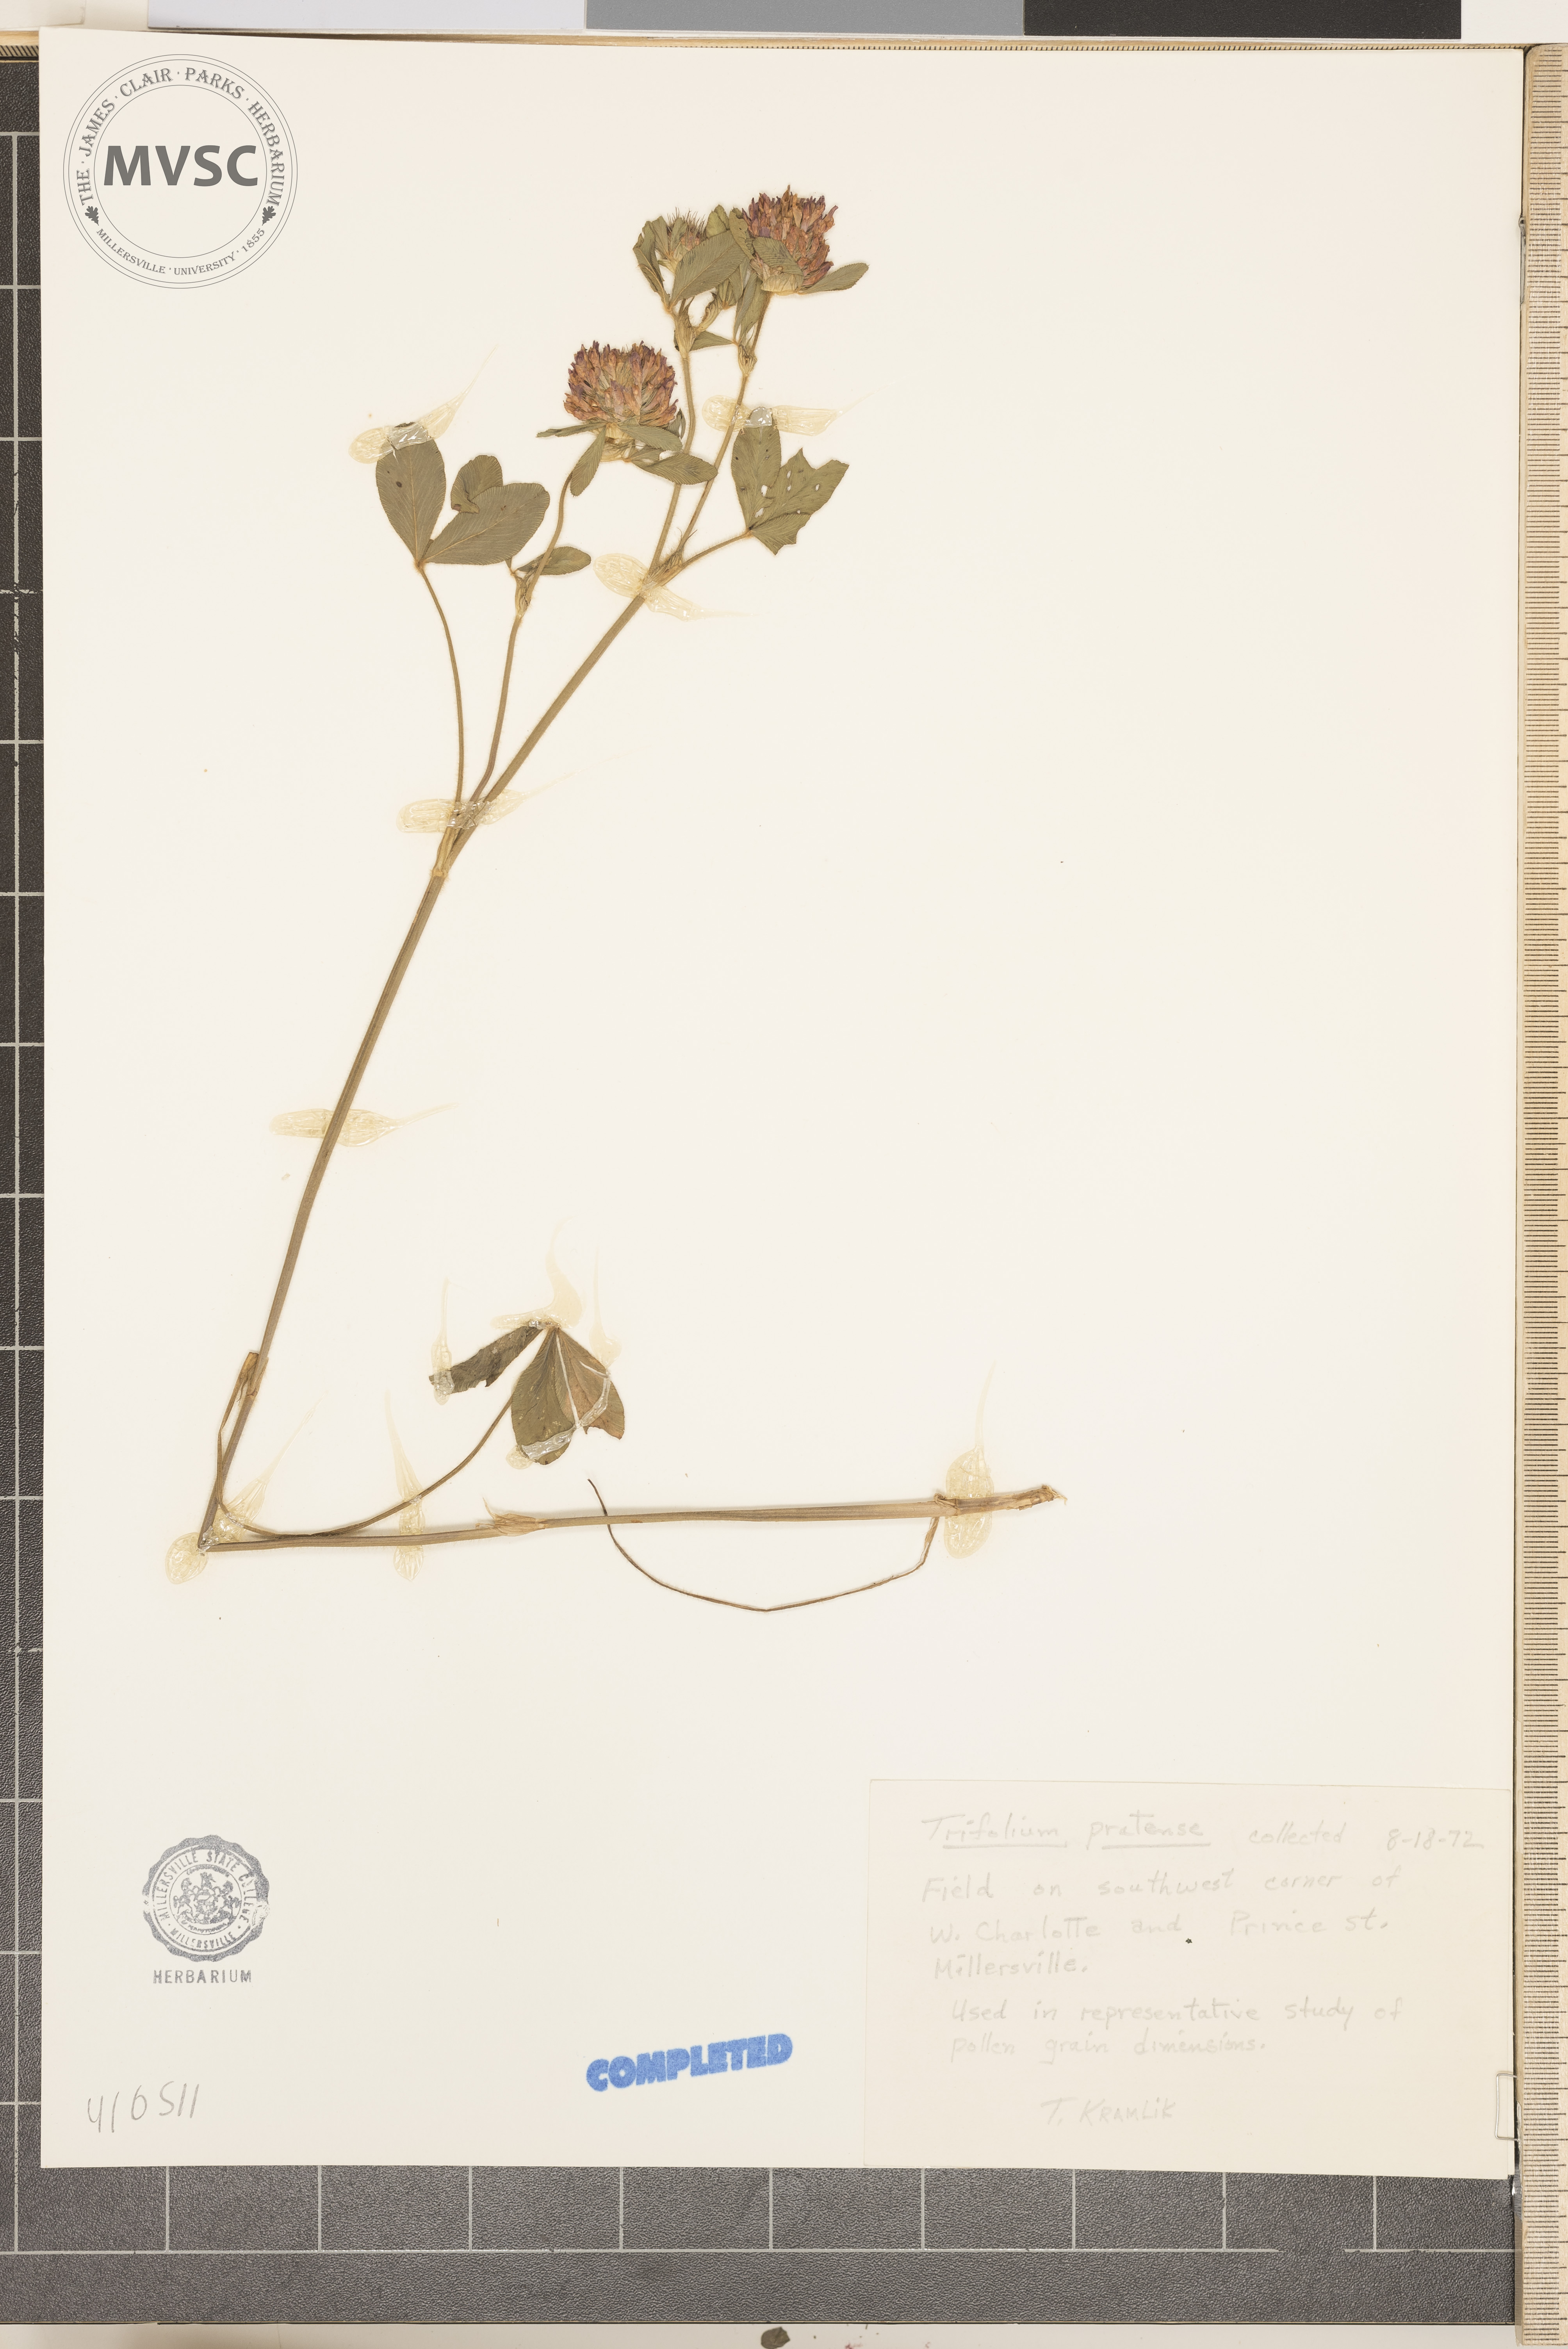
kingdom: Plantae
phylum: Tracheophyta
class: Magnoliopsida
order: Fabales
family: Fabaceae
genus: Trifolium
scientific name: Trifolium pratense
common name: Red clover
